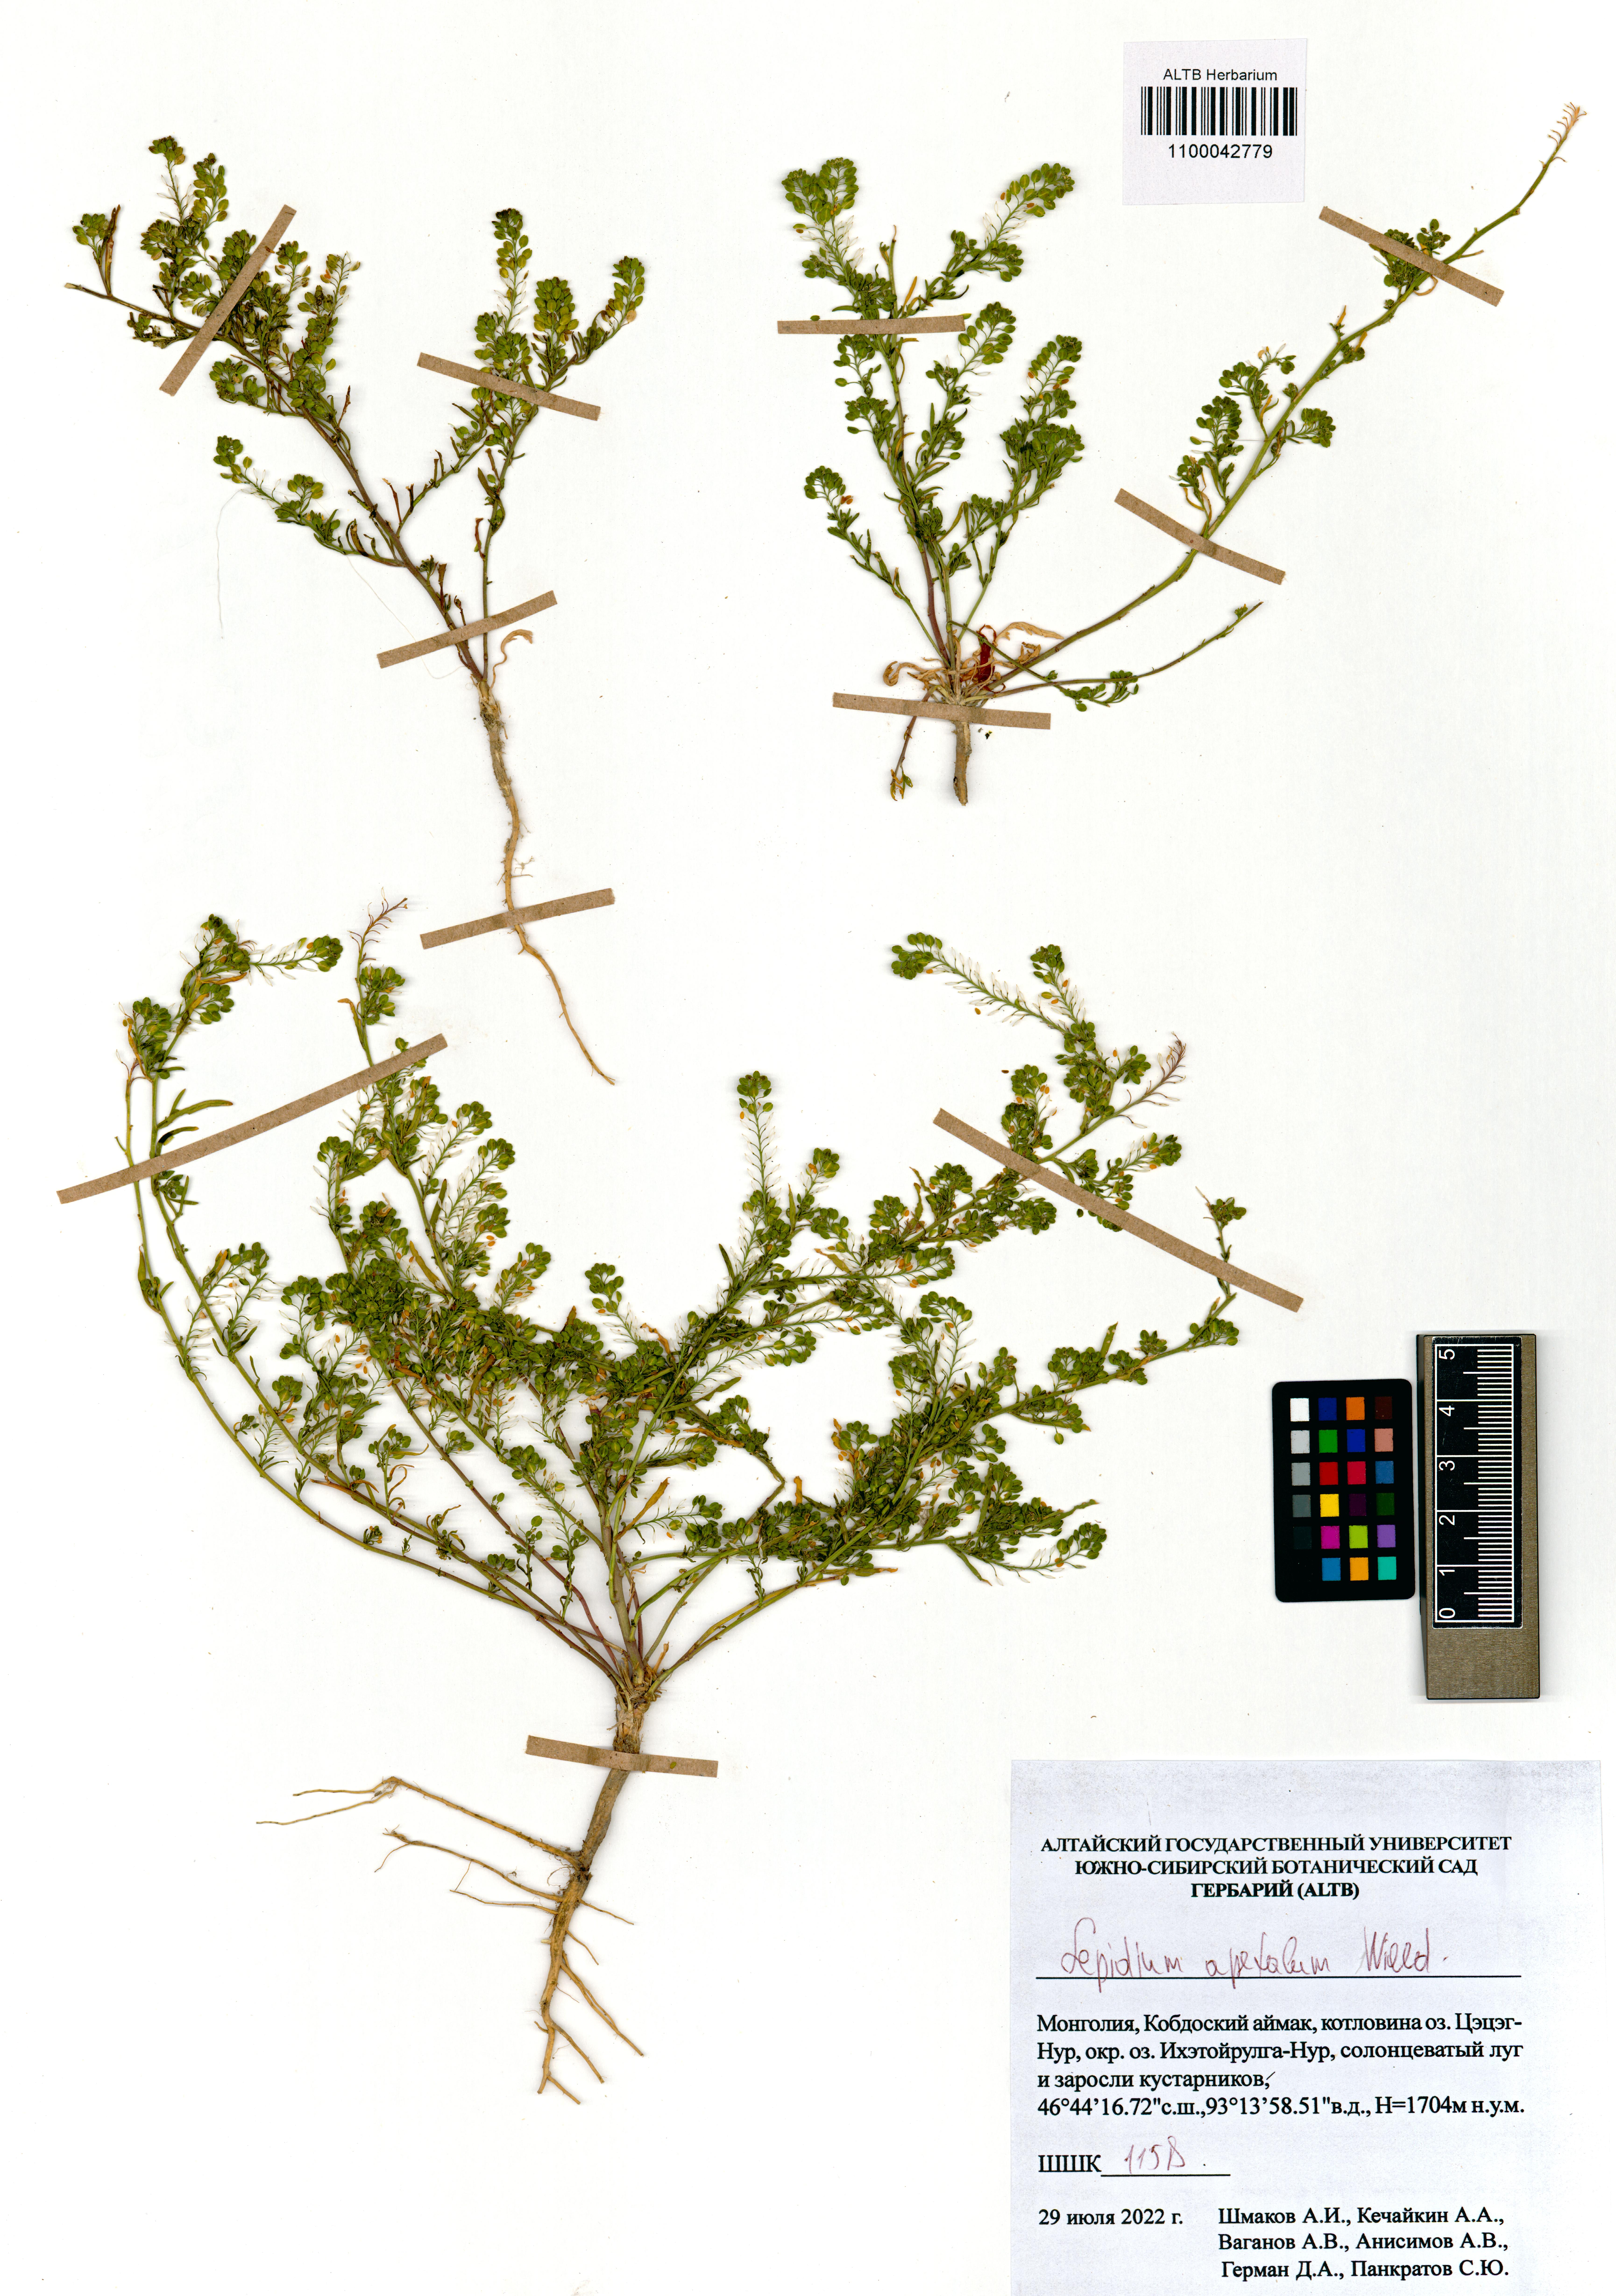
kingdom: Plantae
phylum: Tracheophyta
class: Magnoliopsida
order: Brassicales
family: Brassicaceae
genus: Lepidium
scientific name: Lepidium apetalum
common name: Pepperweed
